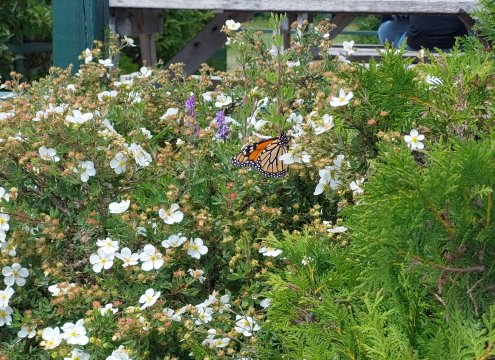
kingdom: Animalia
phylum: Arthropoda
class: Insecta
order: Lepidoptera
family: Nymphalidae
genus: Danaus
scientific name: Danaus plexippus
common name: Monarch
